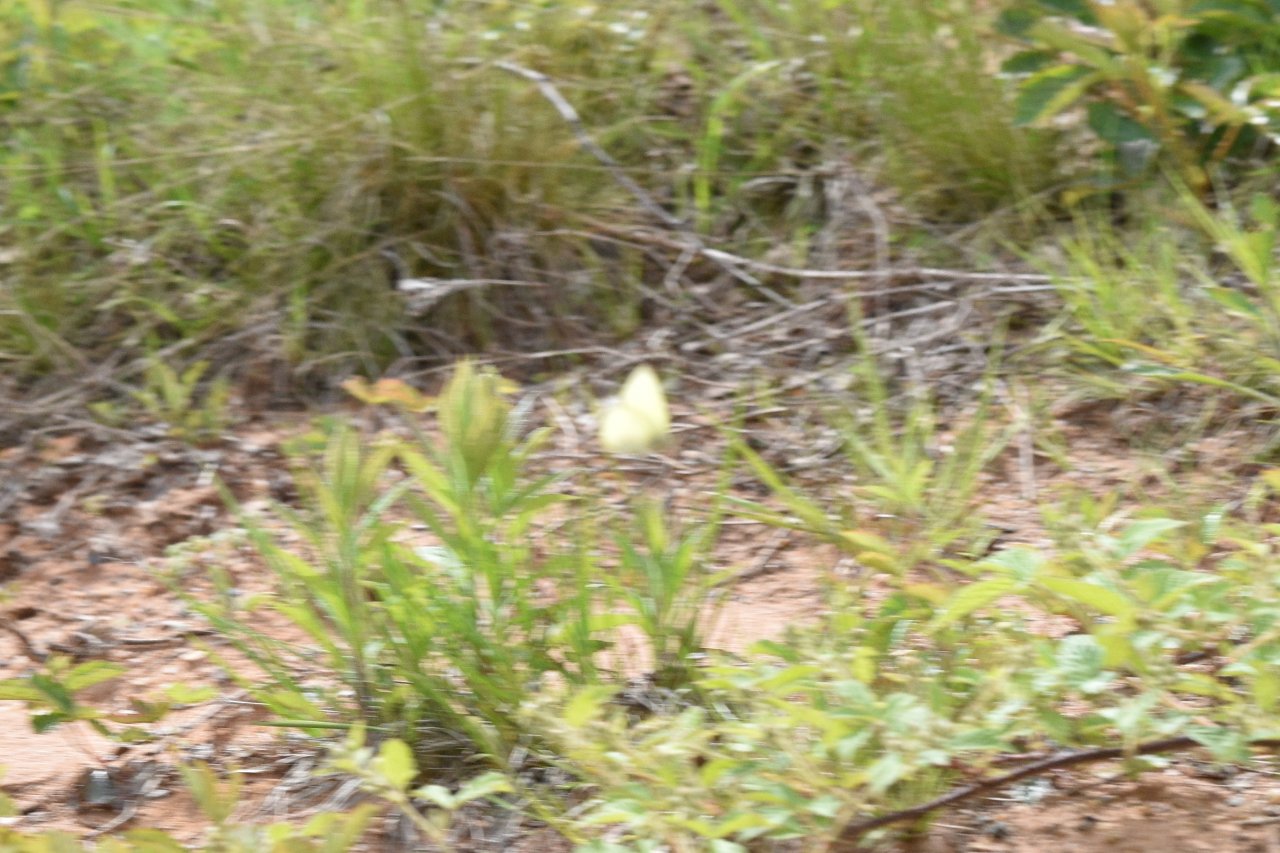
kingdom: Animalia
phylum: Arthropoda
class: Insecta
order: Lepidoptera
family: Pieridae
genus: Colias
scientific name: Colias philodice
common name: Clouded Sulphur
